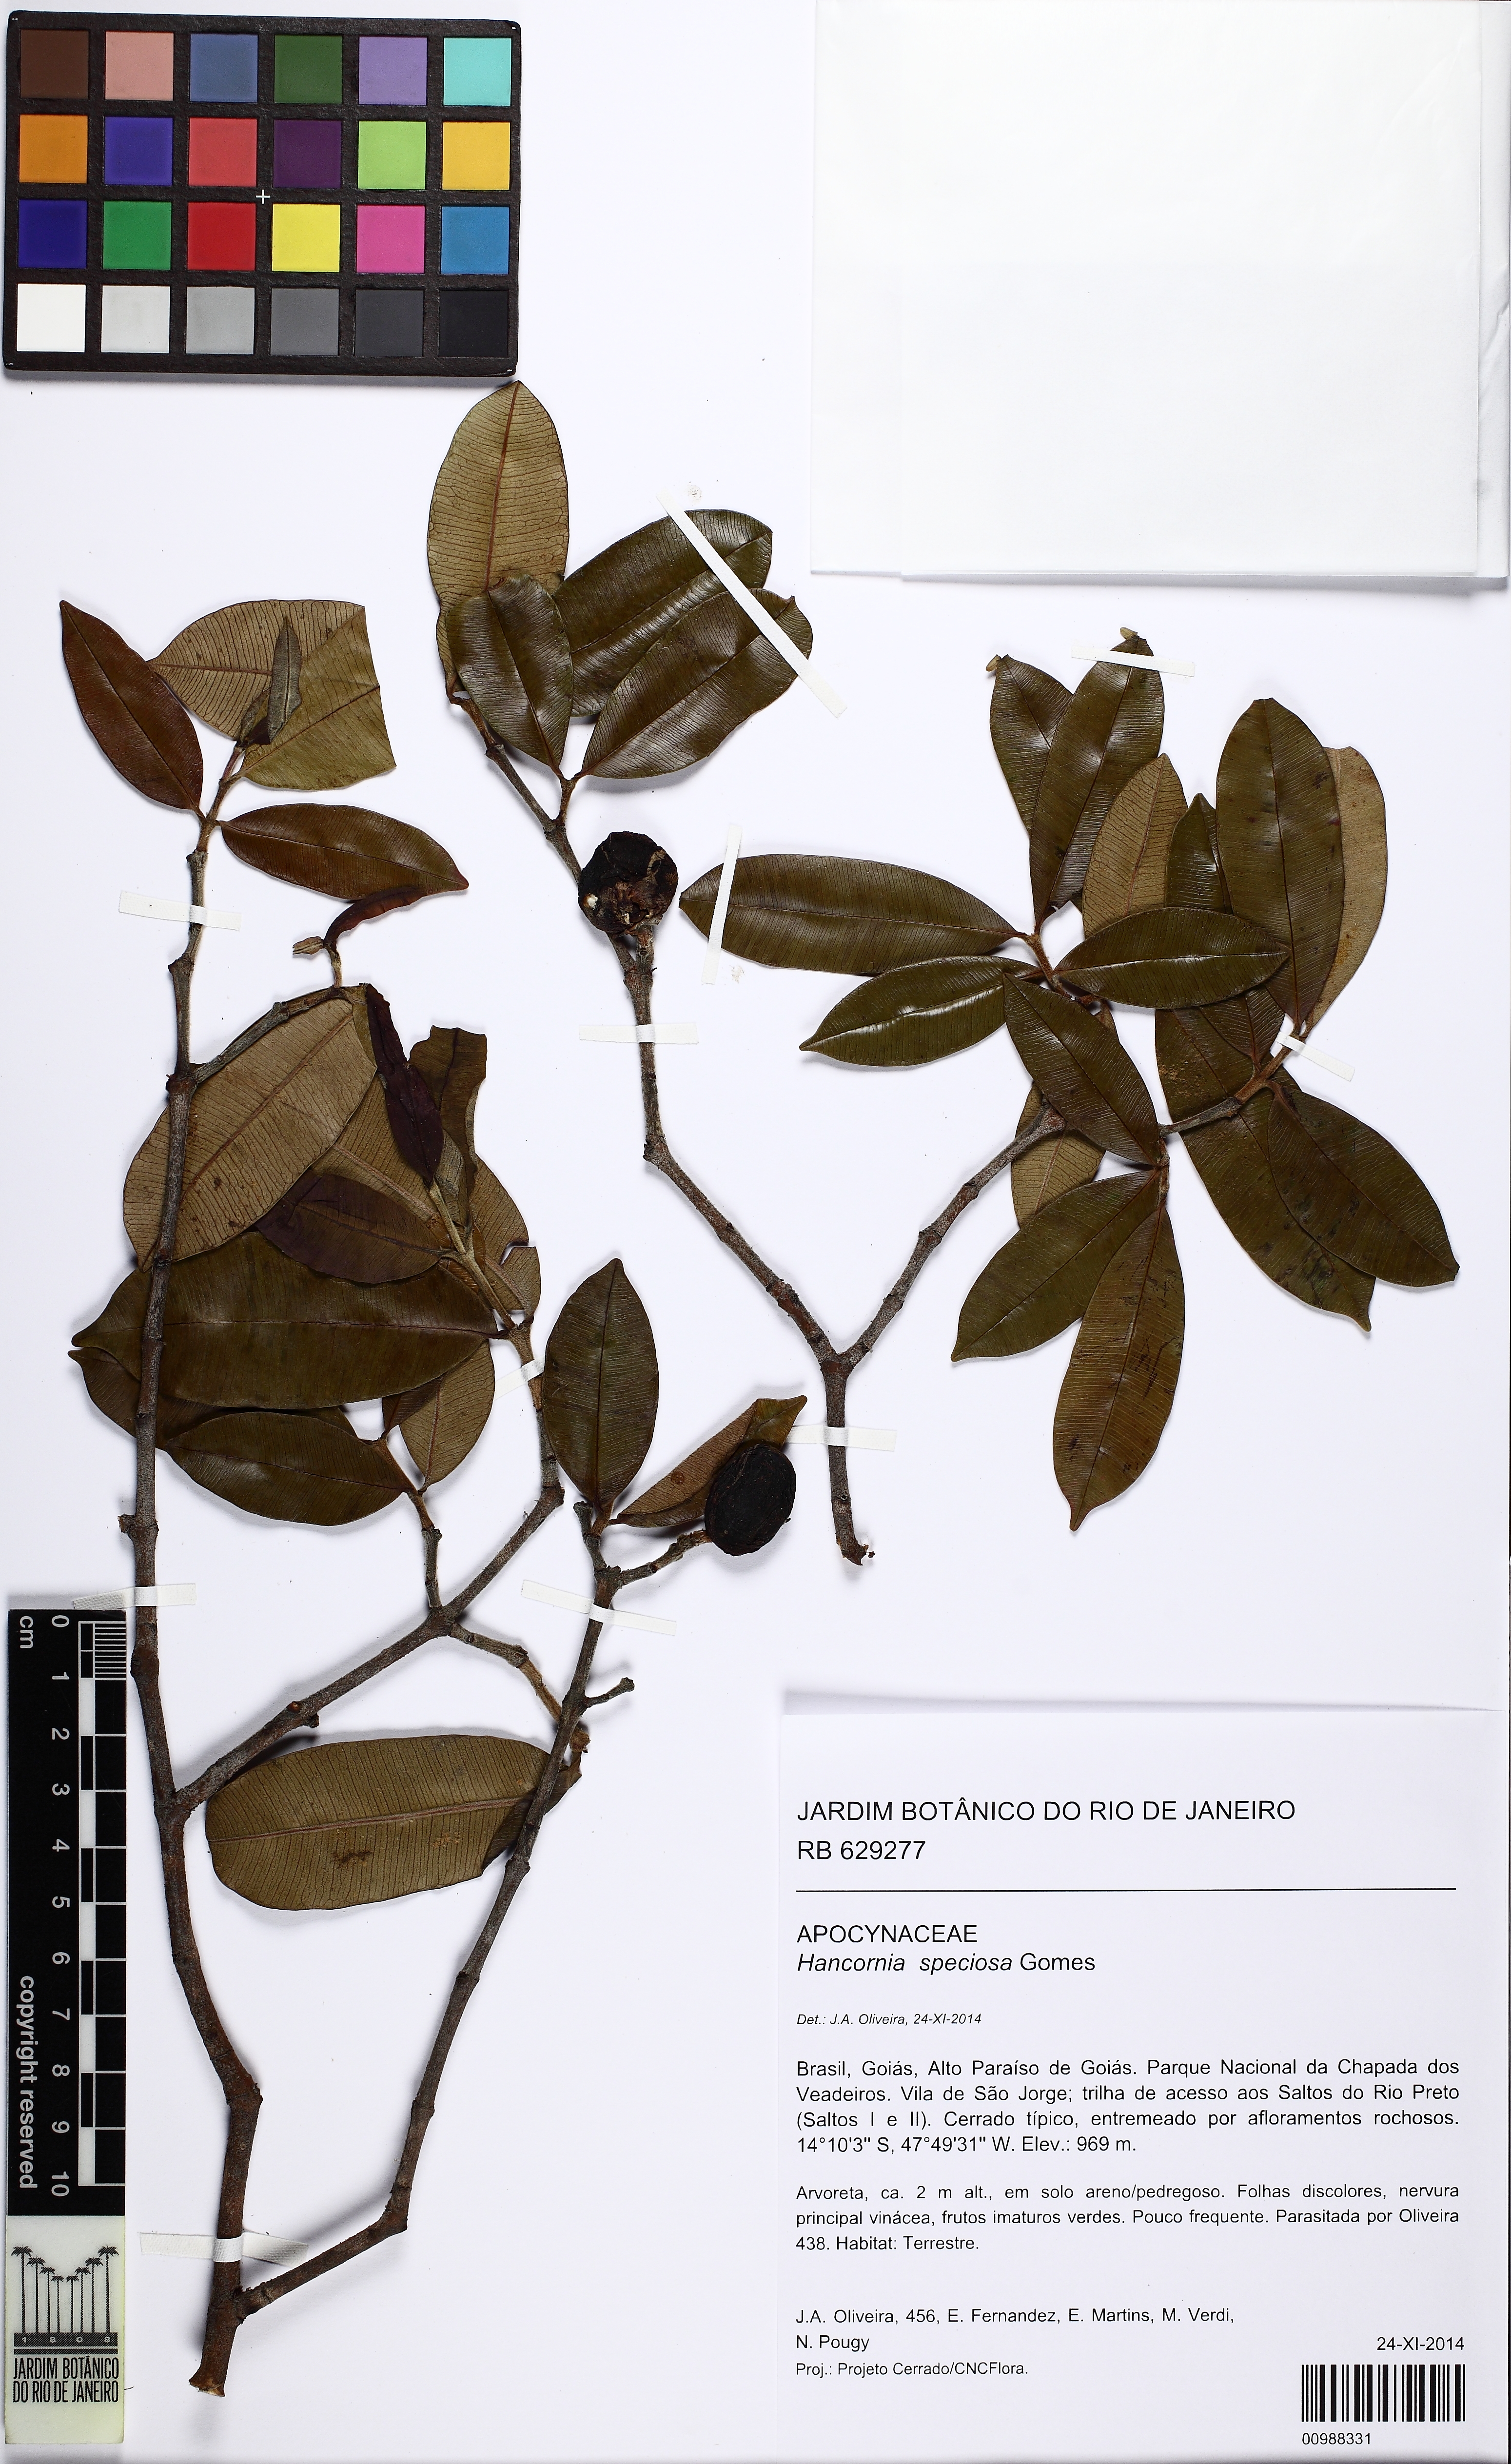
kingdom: Plantae
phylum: Tracheophyta
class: Magnoliopsida
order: Gentianales
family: Apocynaceae
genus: Hancornia
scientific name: Hancornia speciosa
